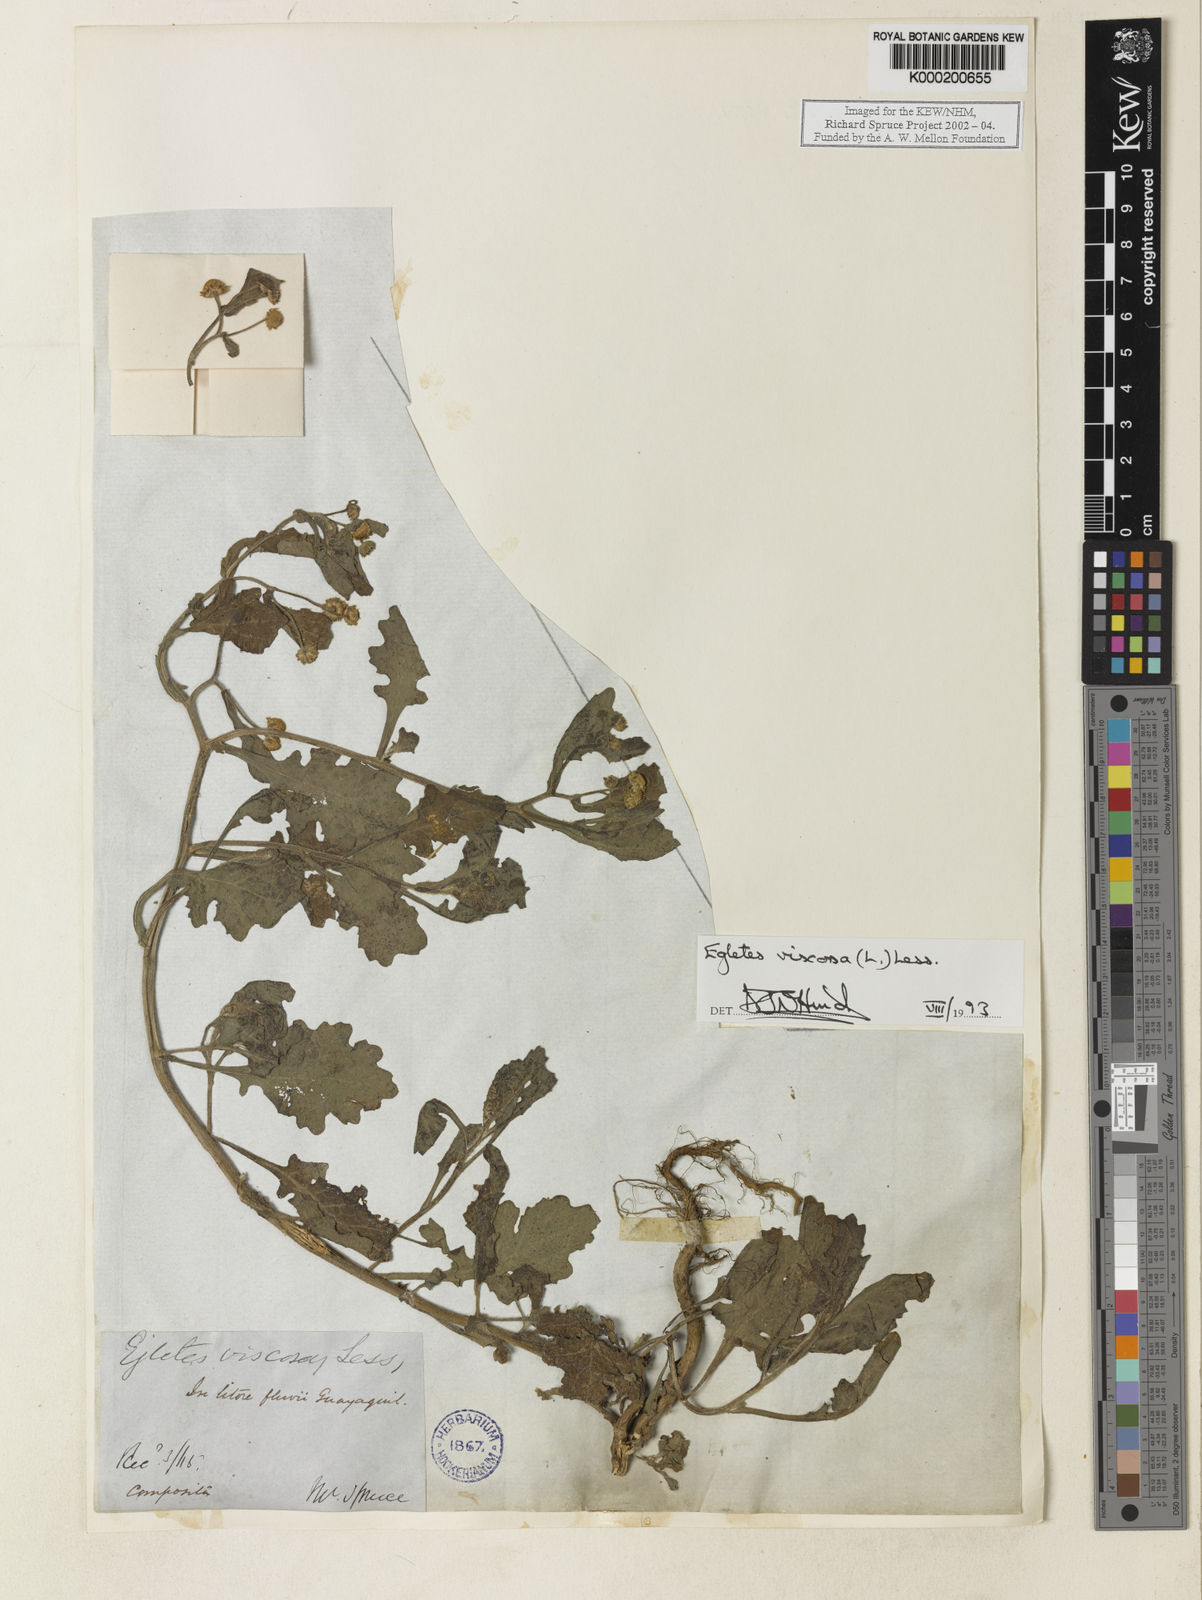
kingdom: Plantae
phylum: Tracheophyta
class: Magnoliopsida
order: Asterales
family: Asteraceae
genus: Egletes
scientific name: Egletes viscosa
